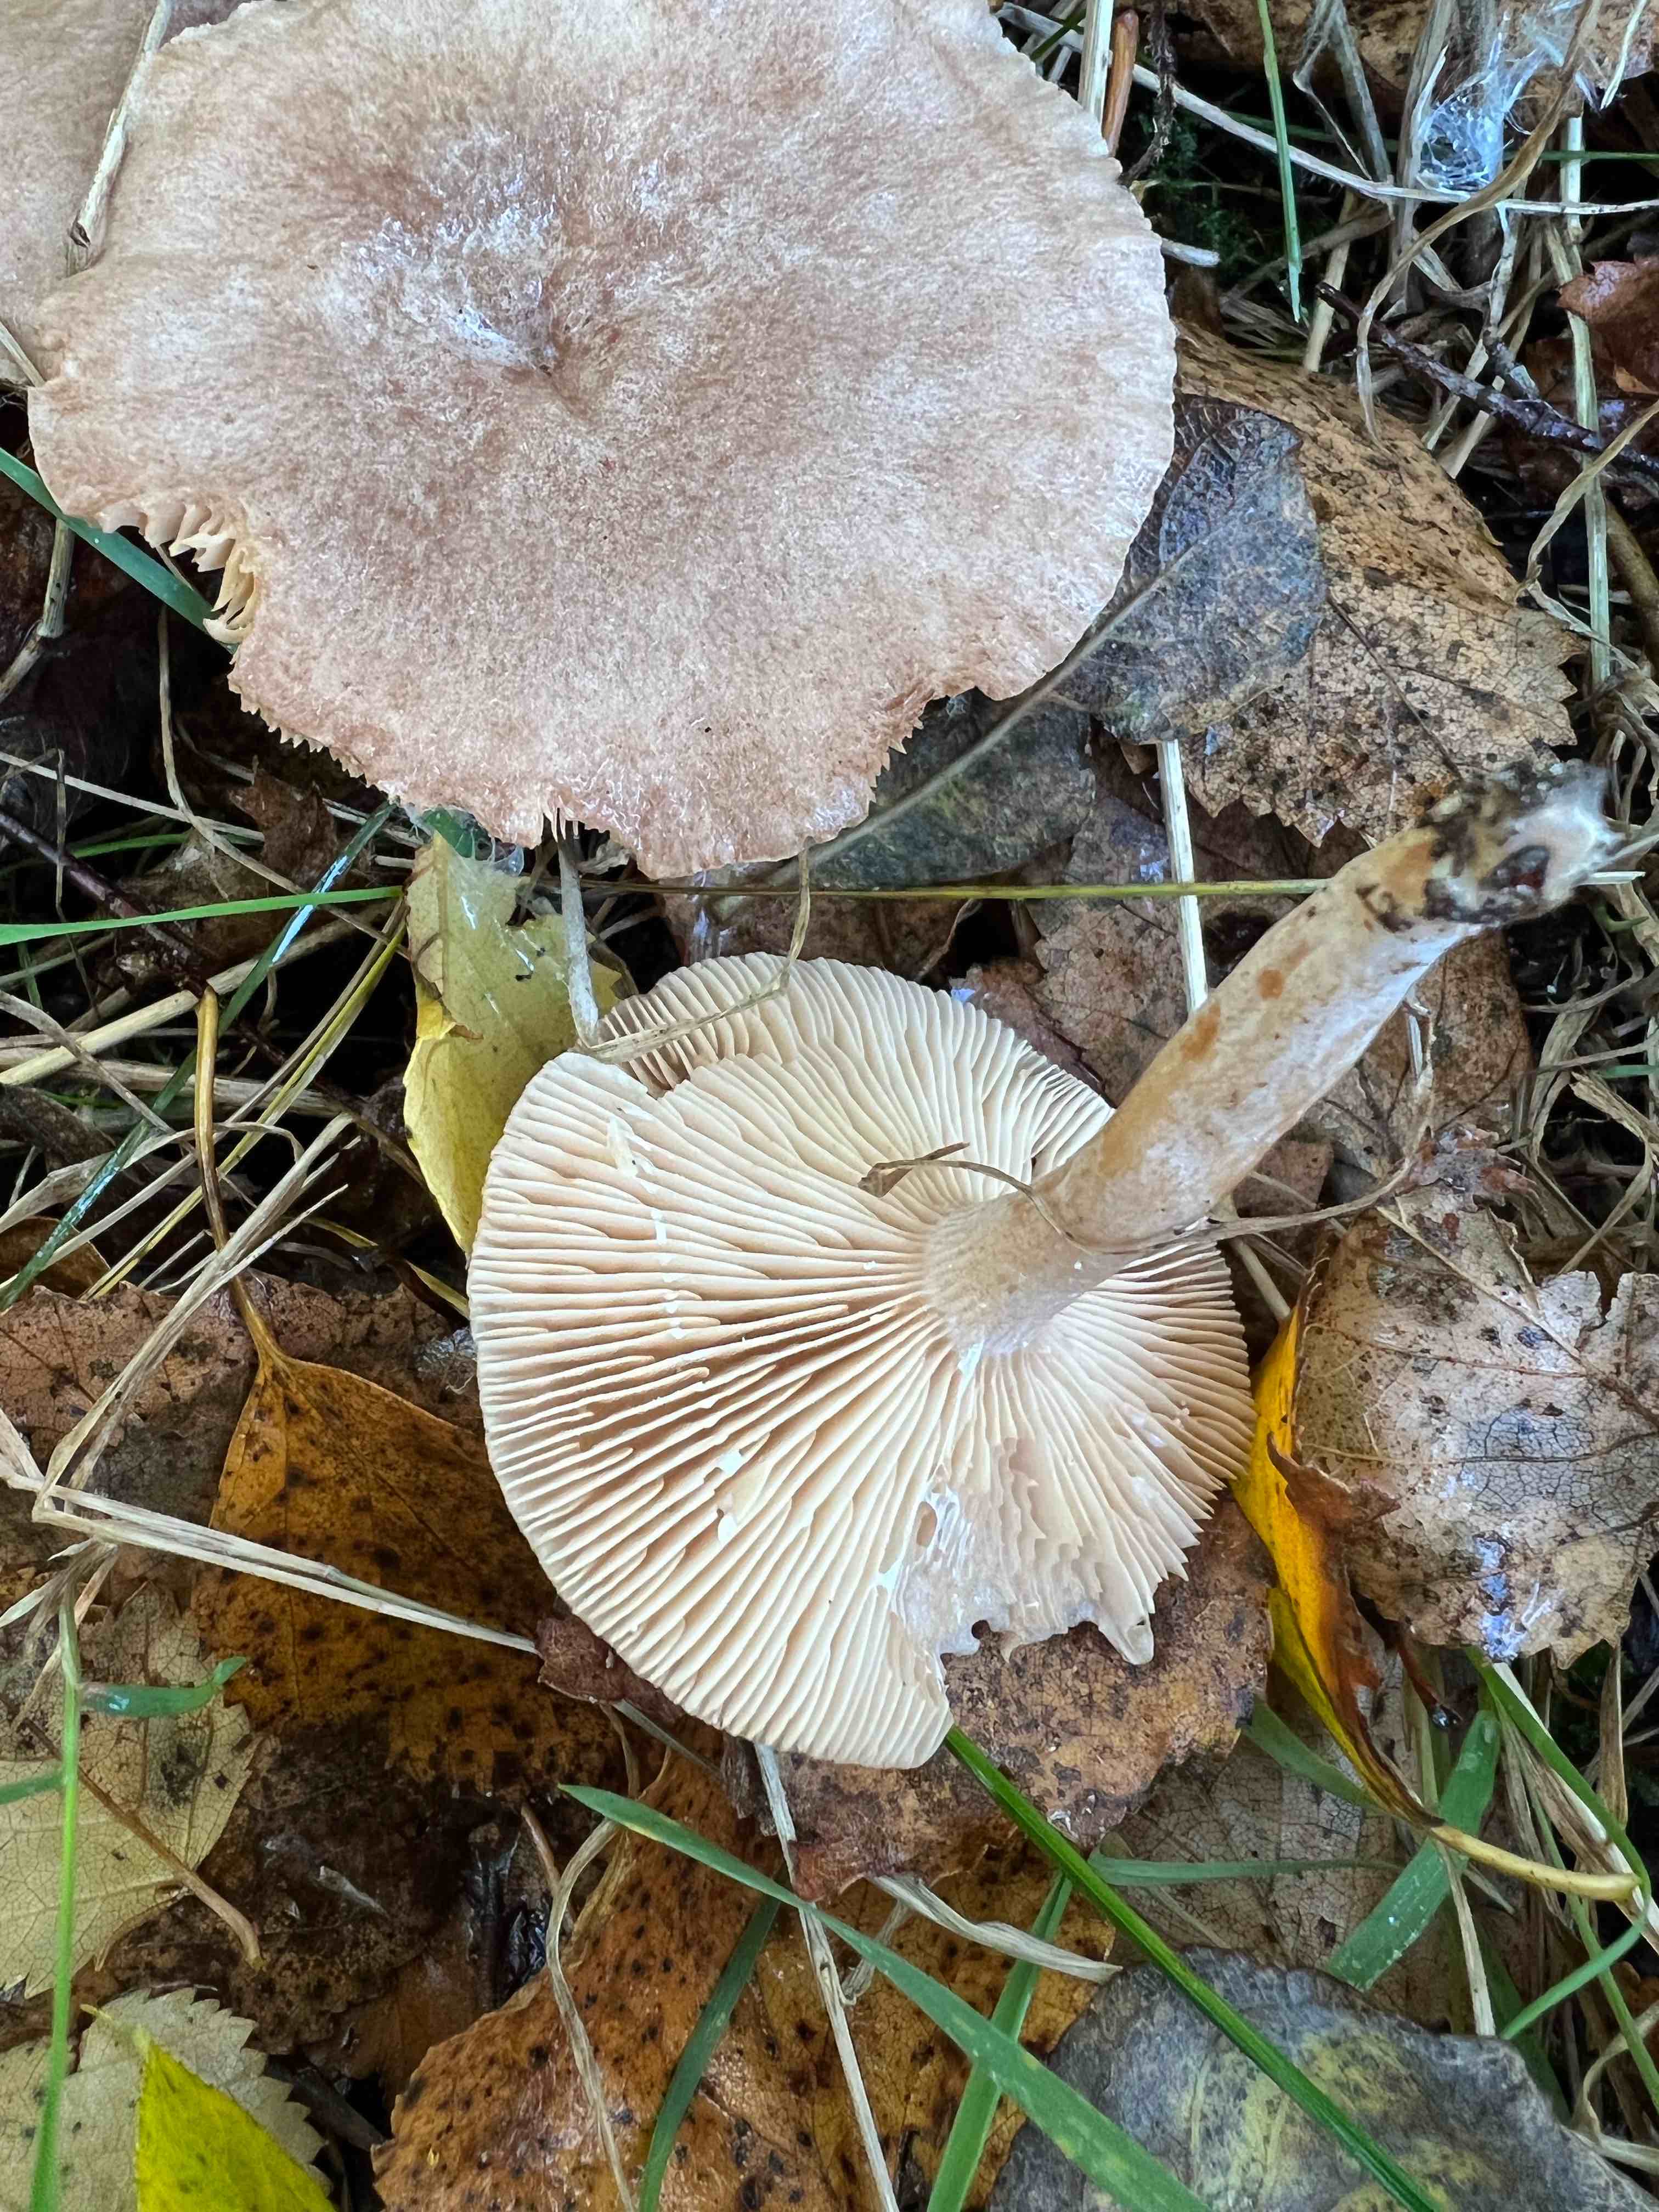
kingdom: Fungi
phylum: Basidiomycota
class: Agaricomycetes
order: Russulales
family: Russulaceae
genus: Lactarius
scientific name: Lactarius glyciosmus
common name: kokos-mælkehat
